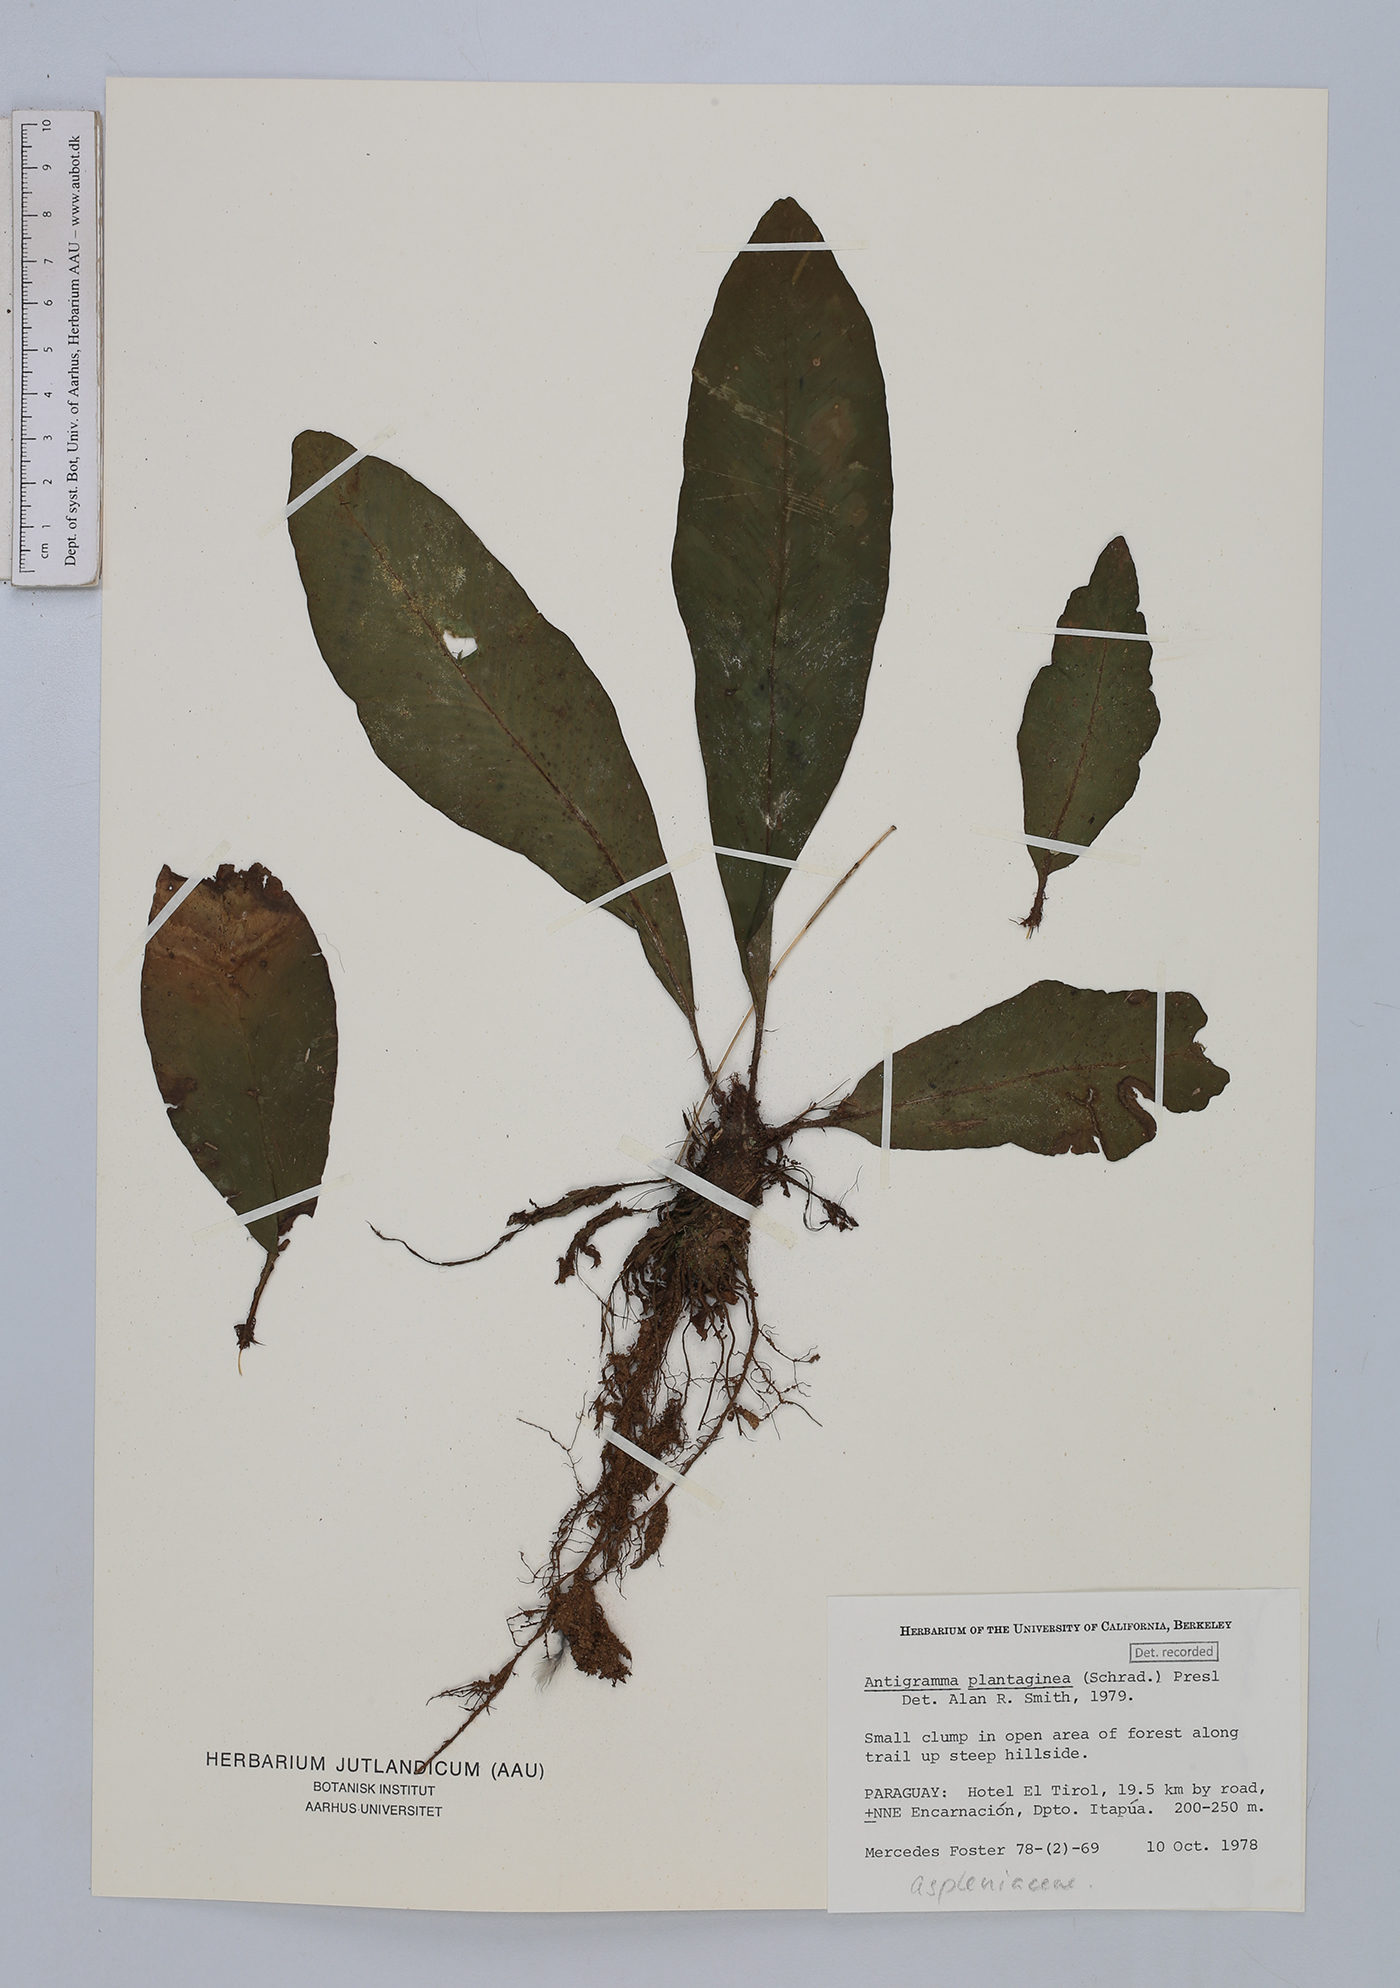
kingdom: Plantae
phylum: Tracheophyta
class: Polypodiopsida
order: Polypodiales
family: Aspleniaceae
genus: Asplenium
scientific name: Asplenium douglasii
